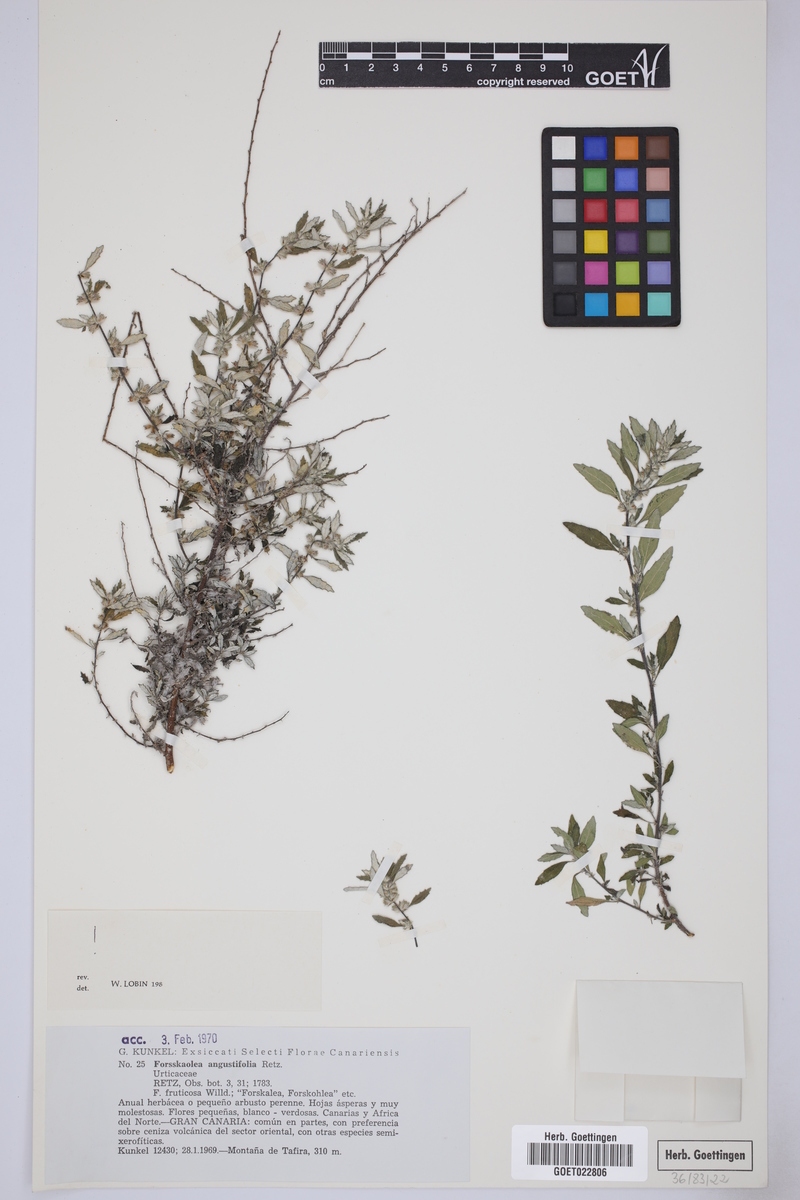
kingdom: Plantae
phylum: Tracheophyta
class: Magnoliopsida
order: Rosales
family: Urticaceae
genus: Forsskaolea
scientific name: Forsskaolea angustifolia
